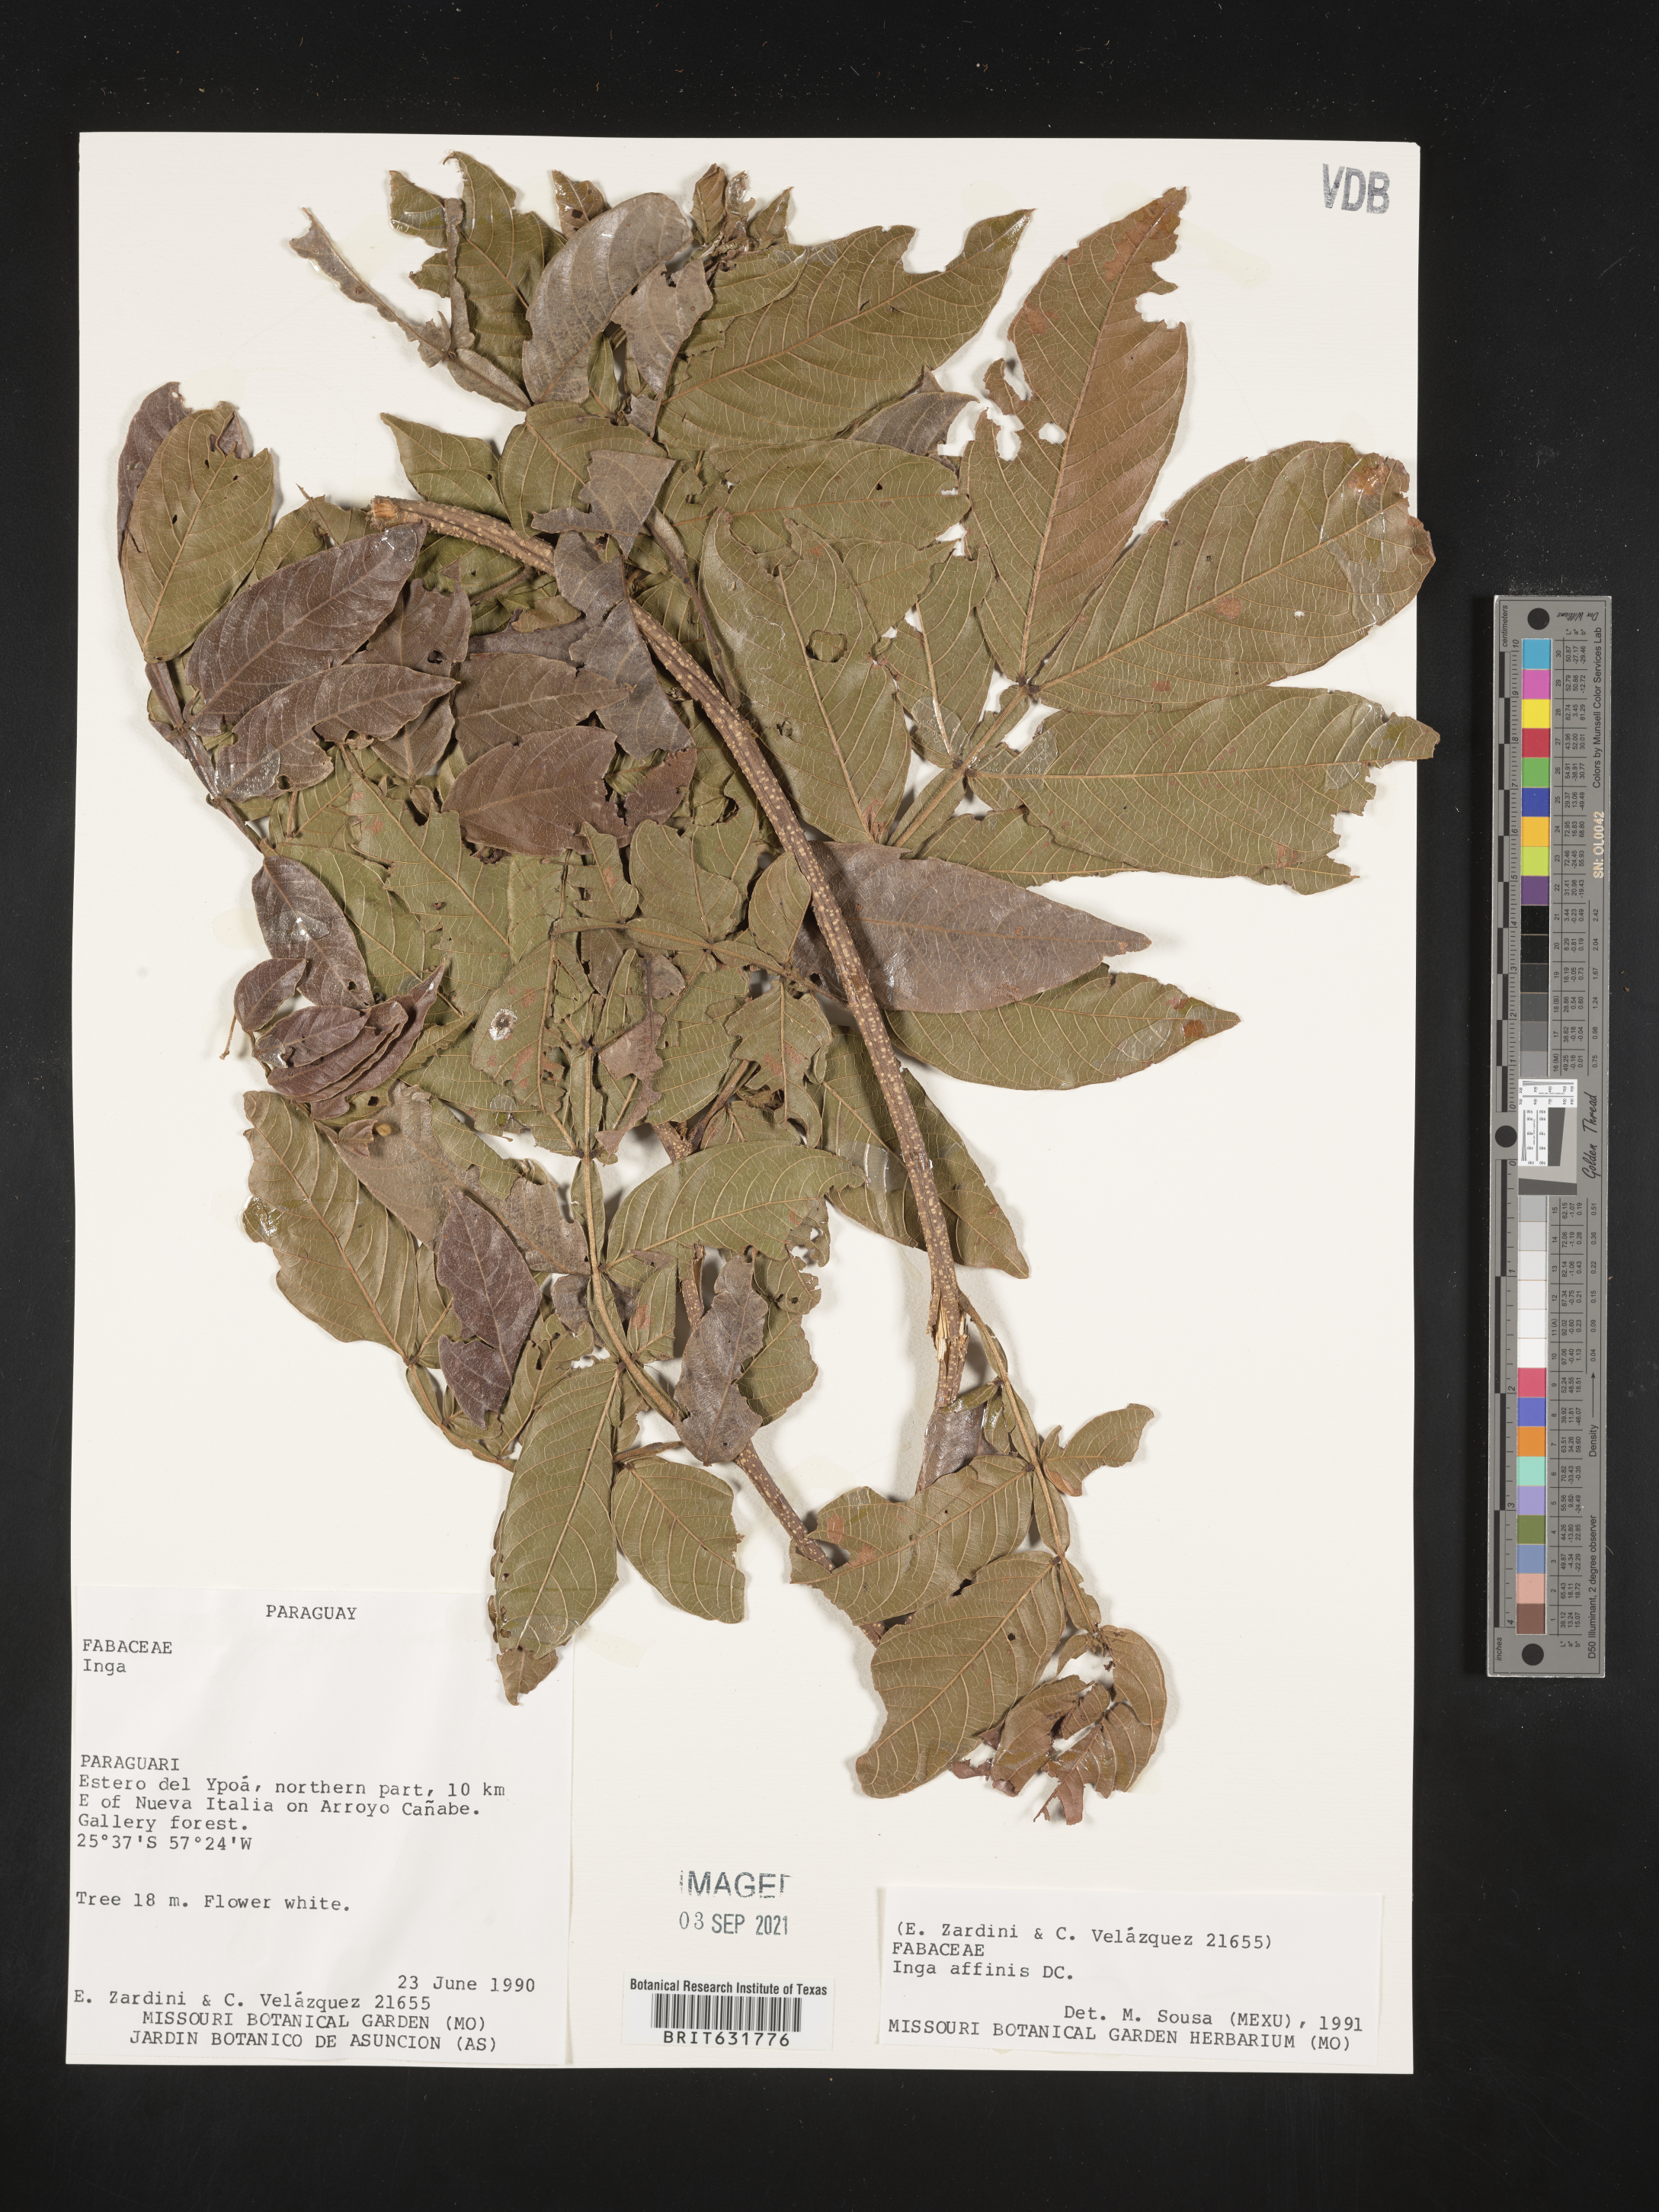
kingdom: Plantae
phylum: Tracheophyta
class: Magnoliopsida
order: Fabales
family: Fabaceae
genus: Inga
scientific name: Inga
